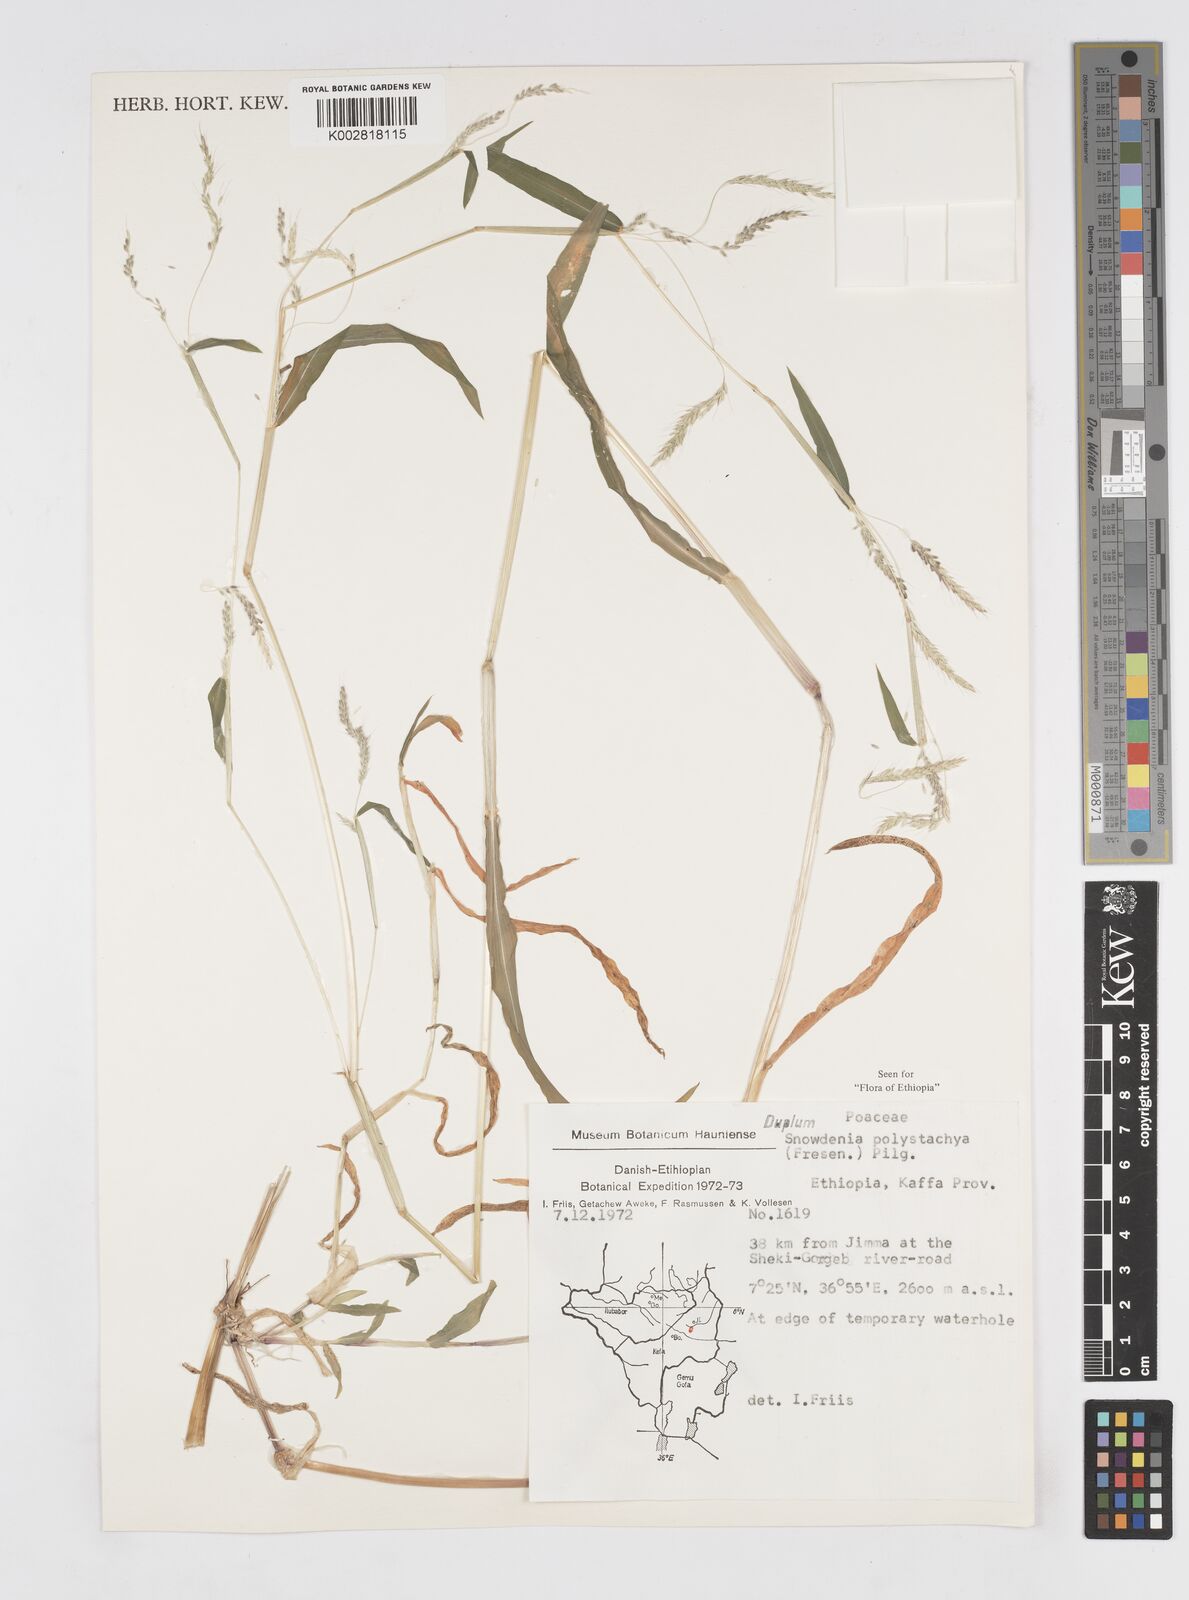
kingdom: Plantae
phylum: Tracheophyta
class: Liliopsida
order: Poales
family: Poaceae
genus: Snowdenia
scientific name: Snowdenia polystachya
